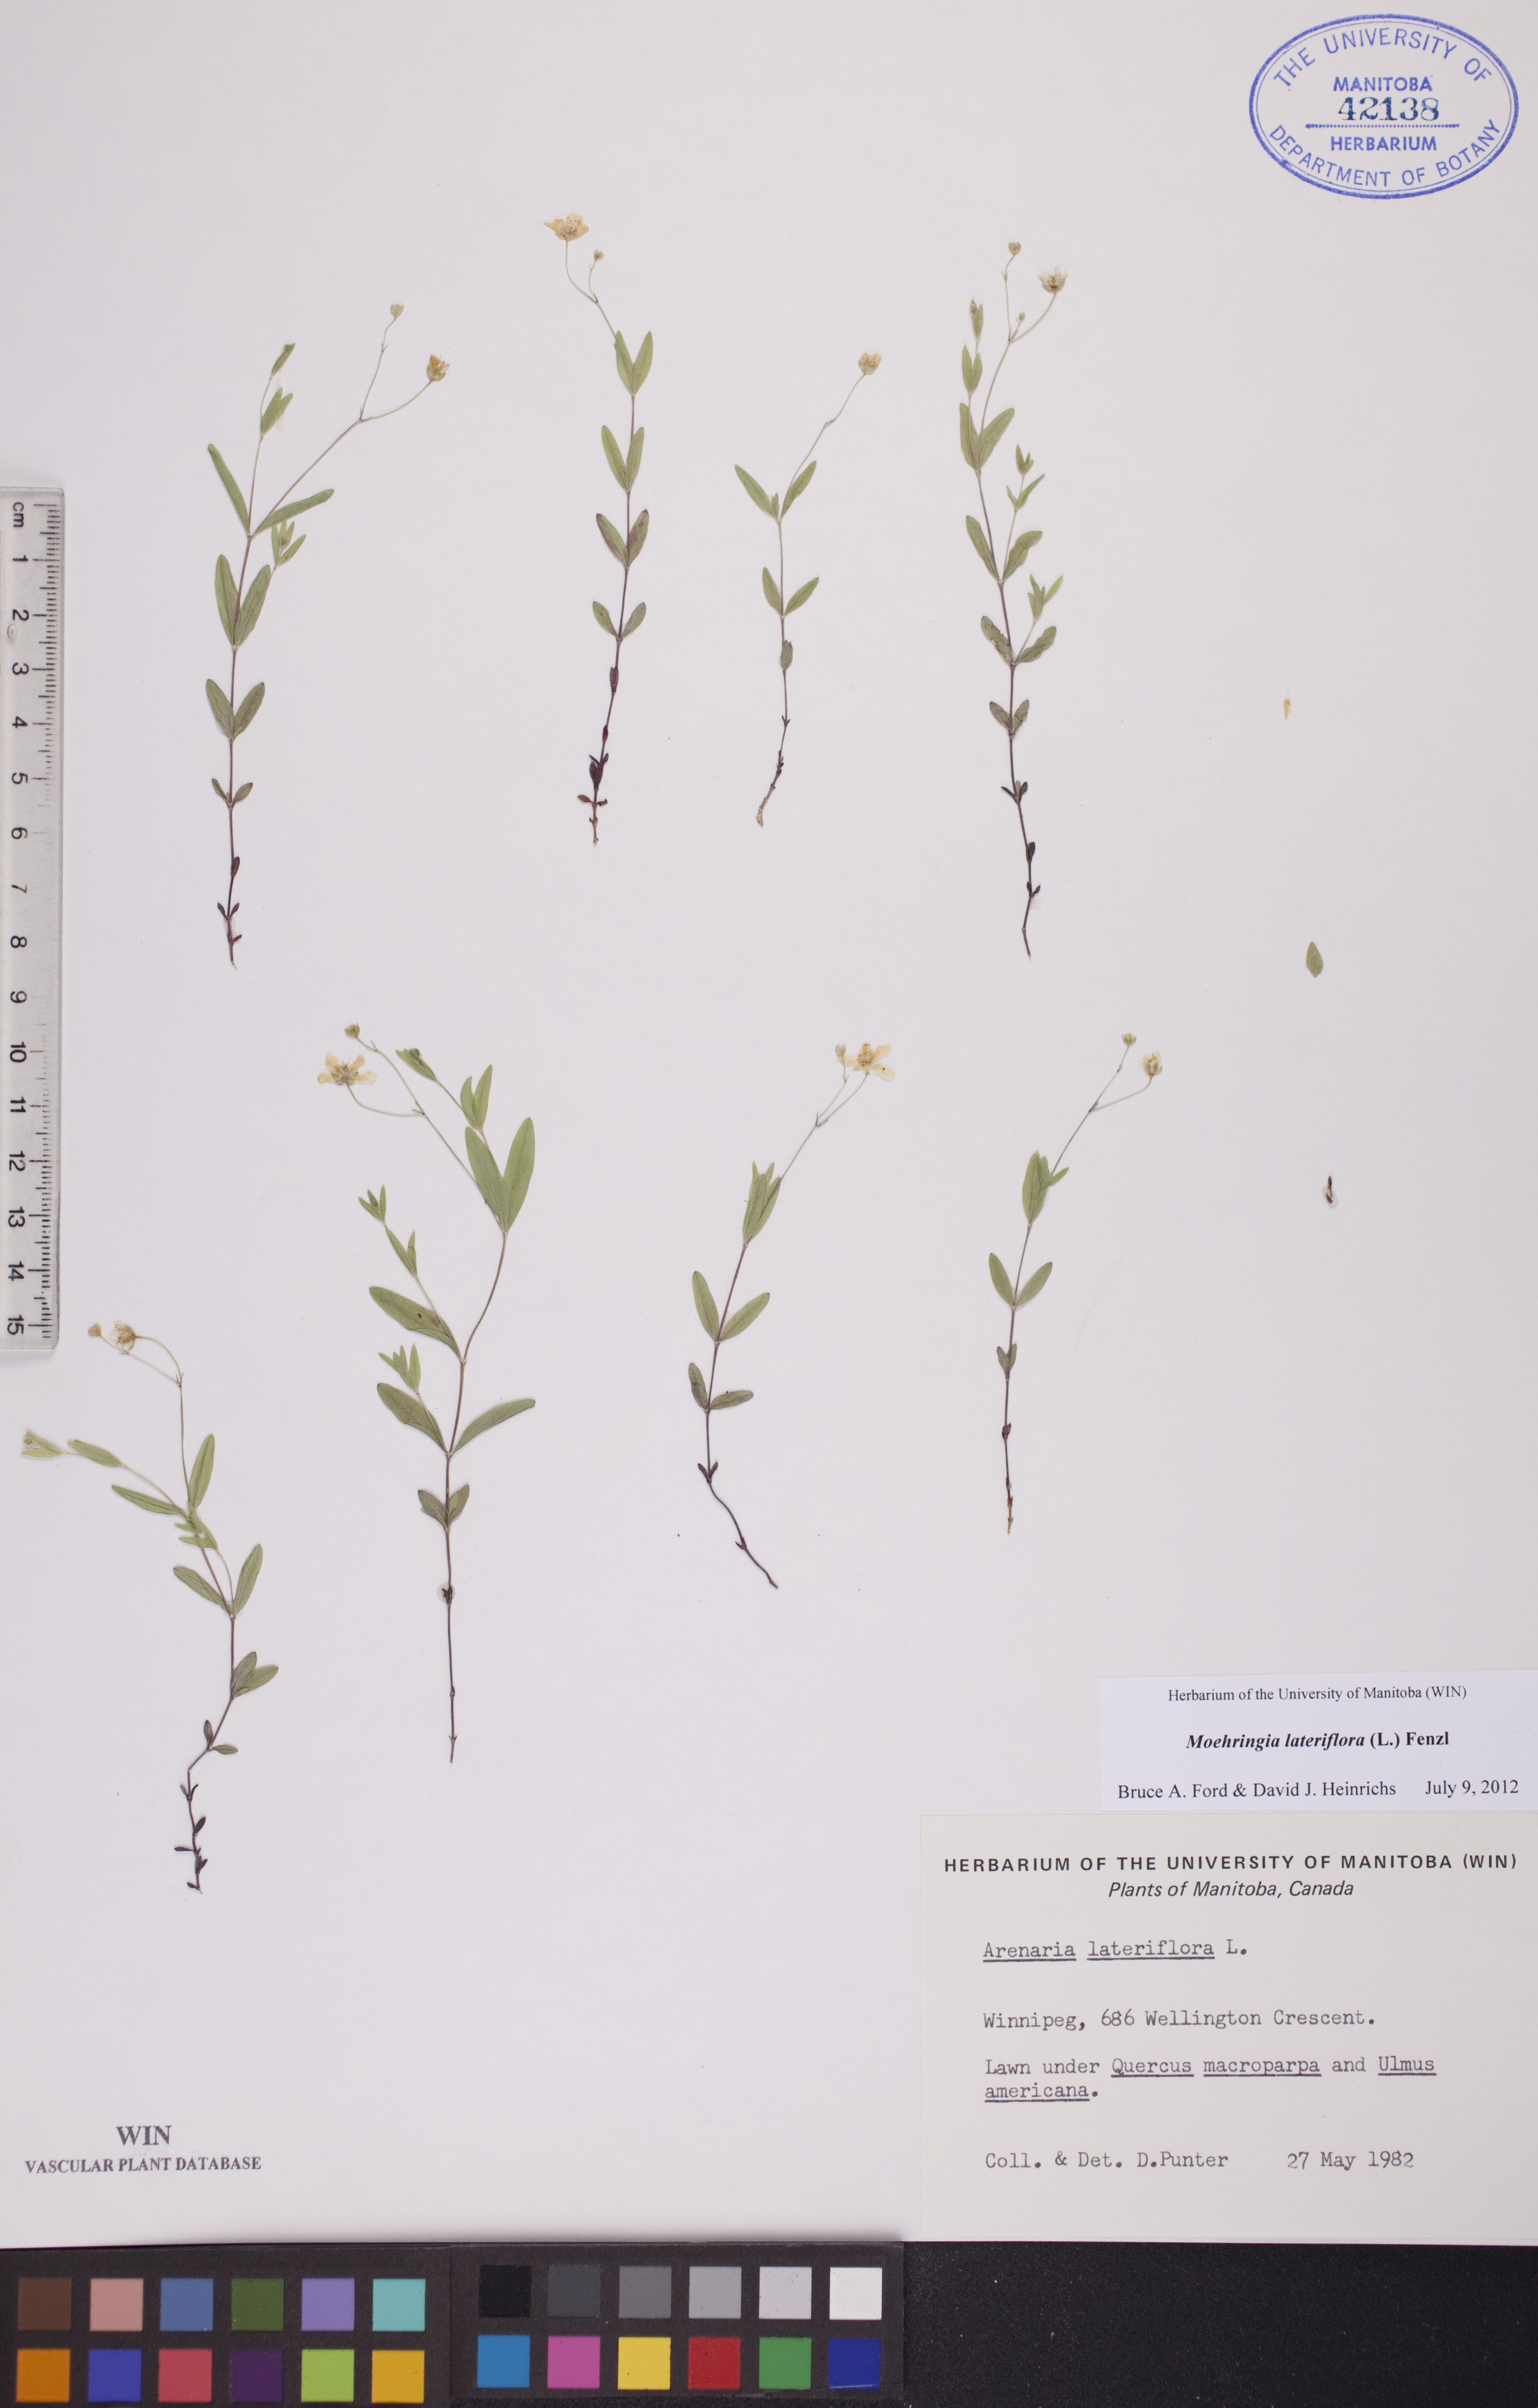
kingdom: Plantae
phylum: Tracheophyta
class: Magnoliopsida
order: Caryophyllales
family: Caryophyllaceae
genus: Moehringia
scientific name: Moehringia lateriflora
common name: Blunt-leaved sandwort
